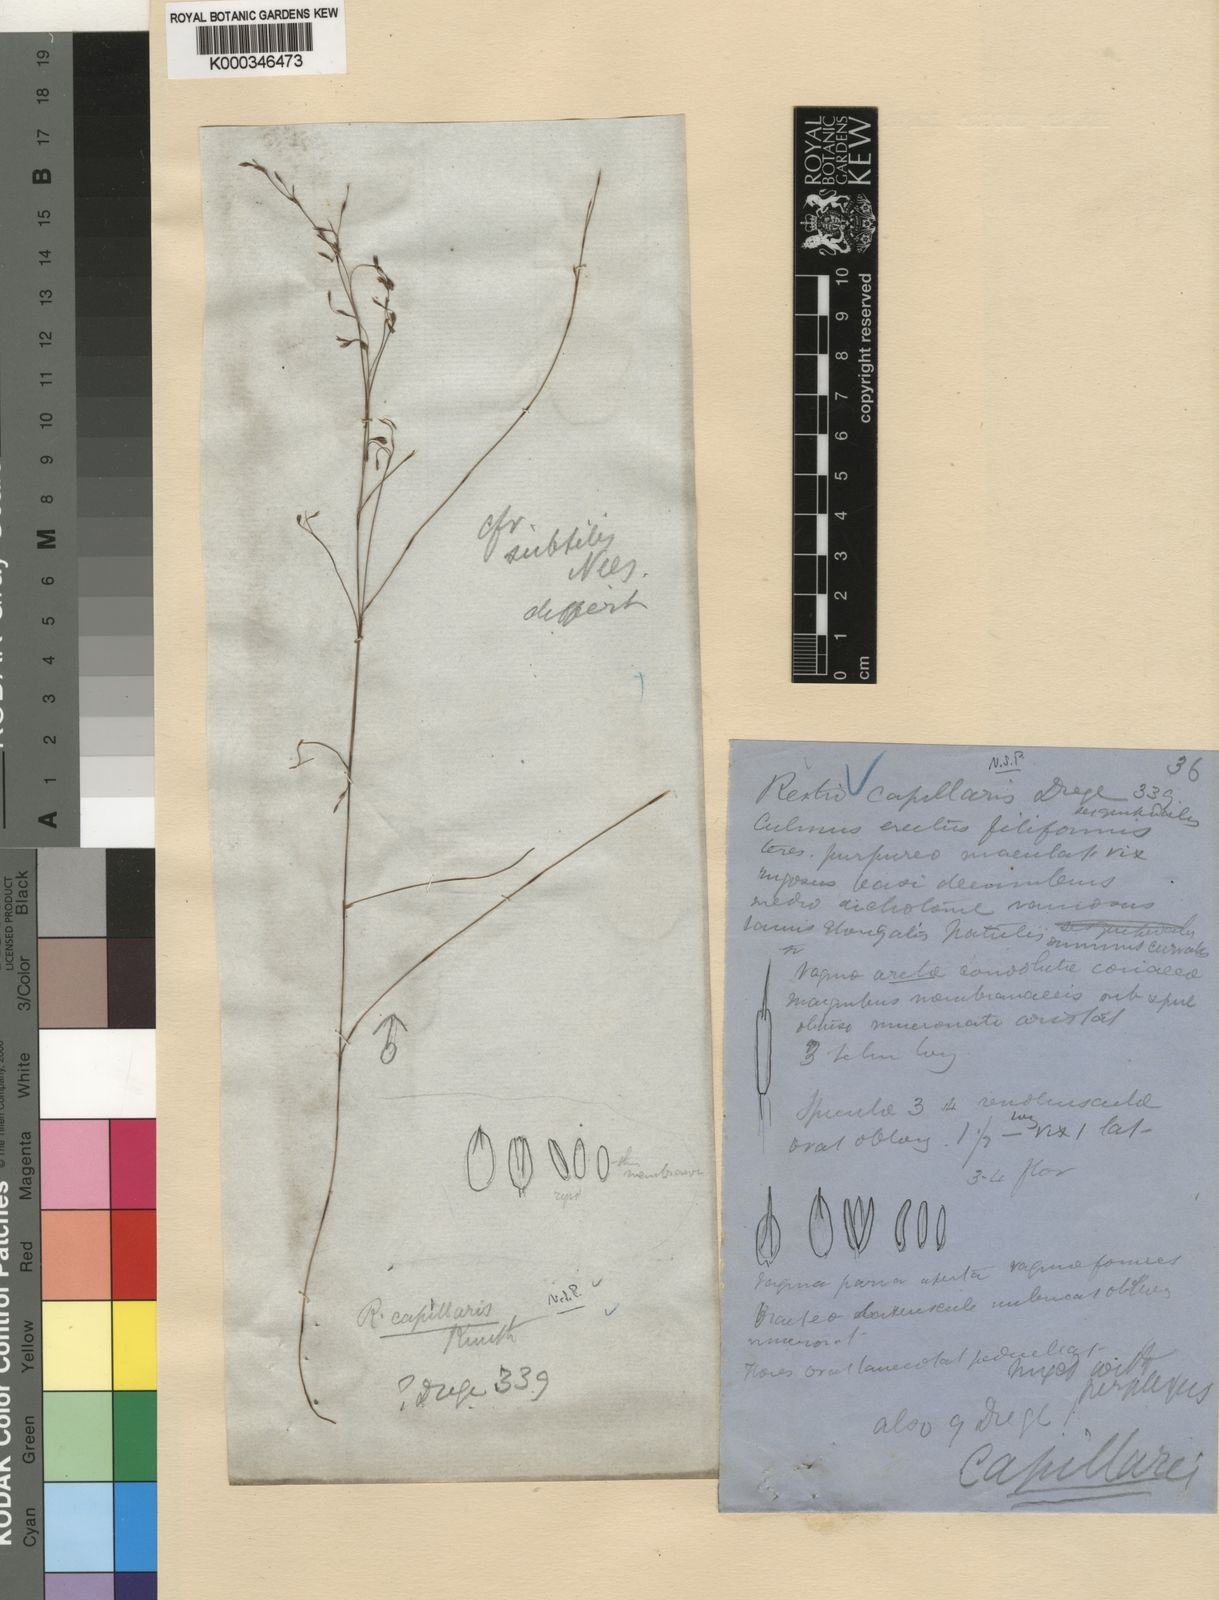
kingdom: Plantae
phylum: Tracheophyta
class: Liliopsida
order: Poales
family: Restionaceae
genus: Restio
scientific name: Restio capillaris
